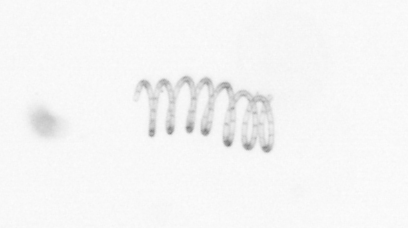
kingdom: Chromista
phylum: Ochrophyta
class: Bacillariophyceae
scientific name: Bacillariophyceae
